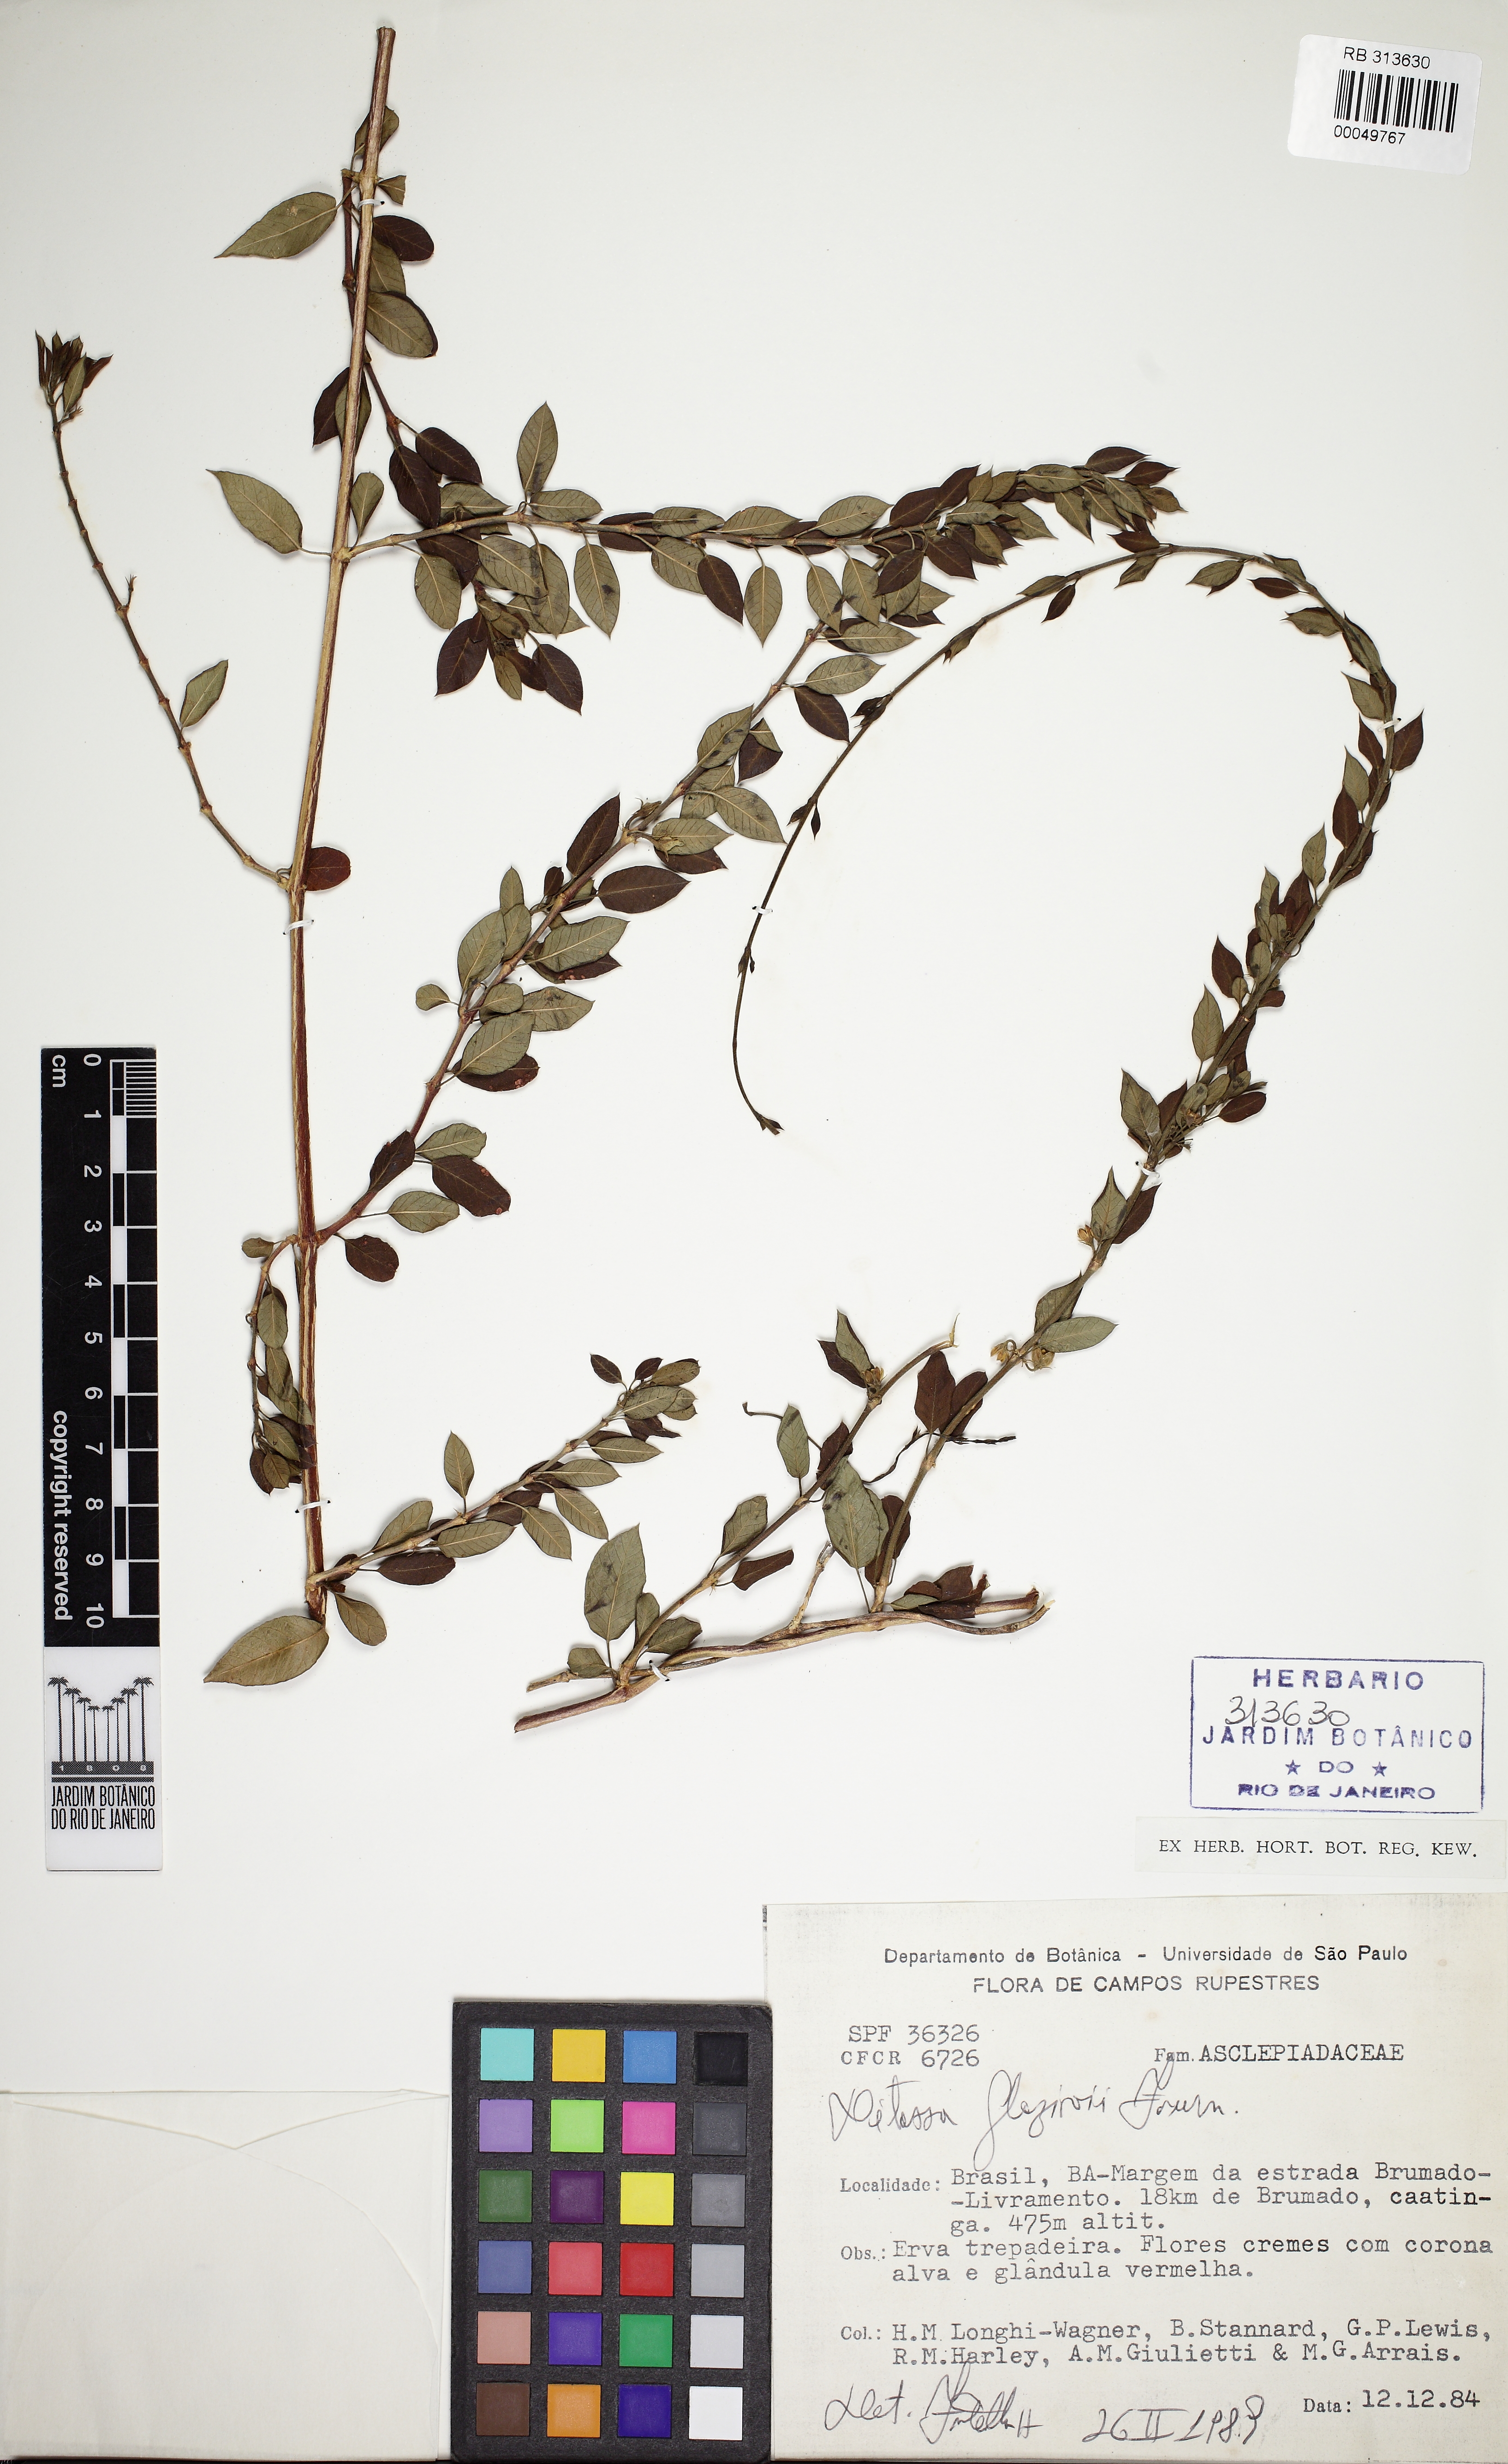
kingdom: Plantae
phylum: Tracheophyta
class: Magnoliopsida
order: Gentianales
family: Apocynaceae
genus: Ditassa
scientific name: Ditassa glaziovi
